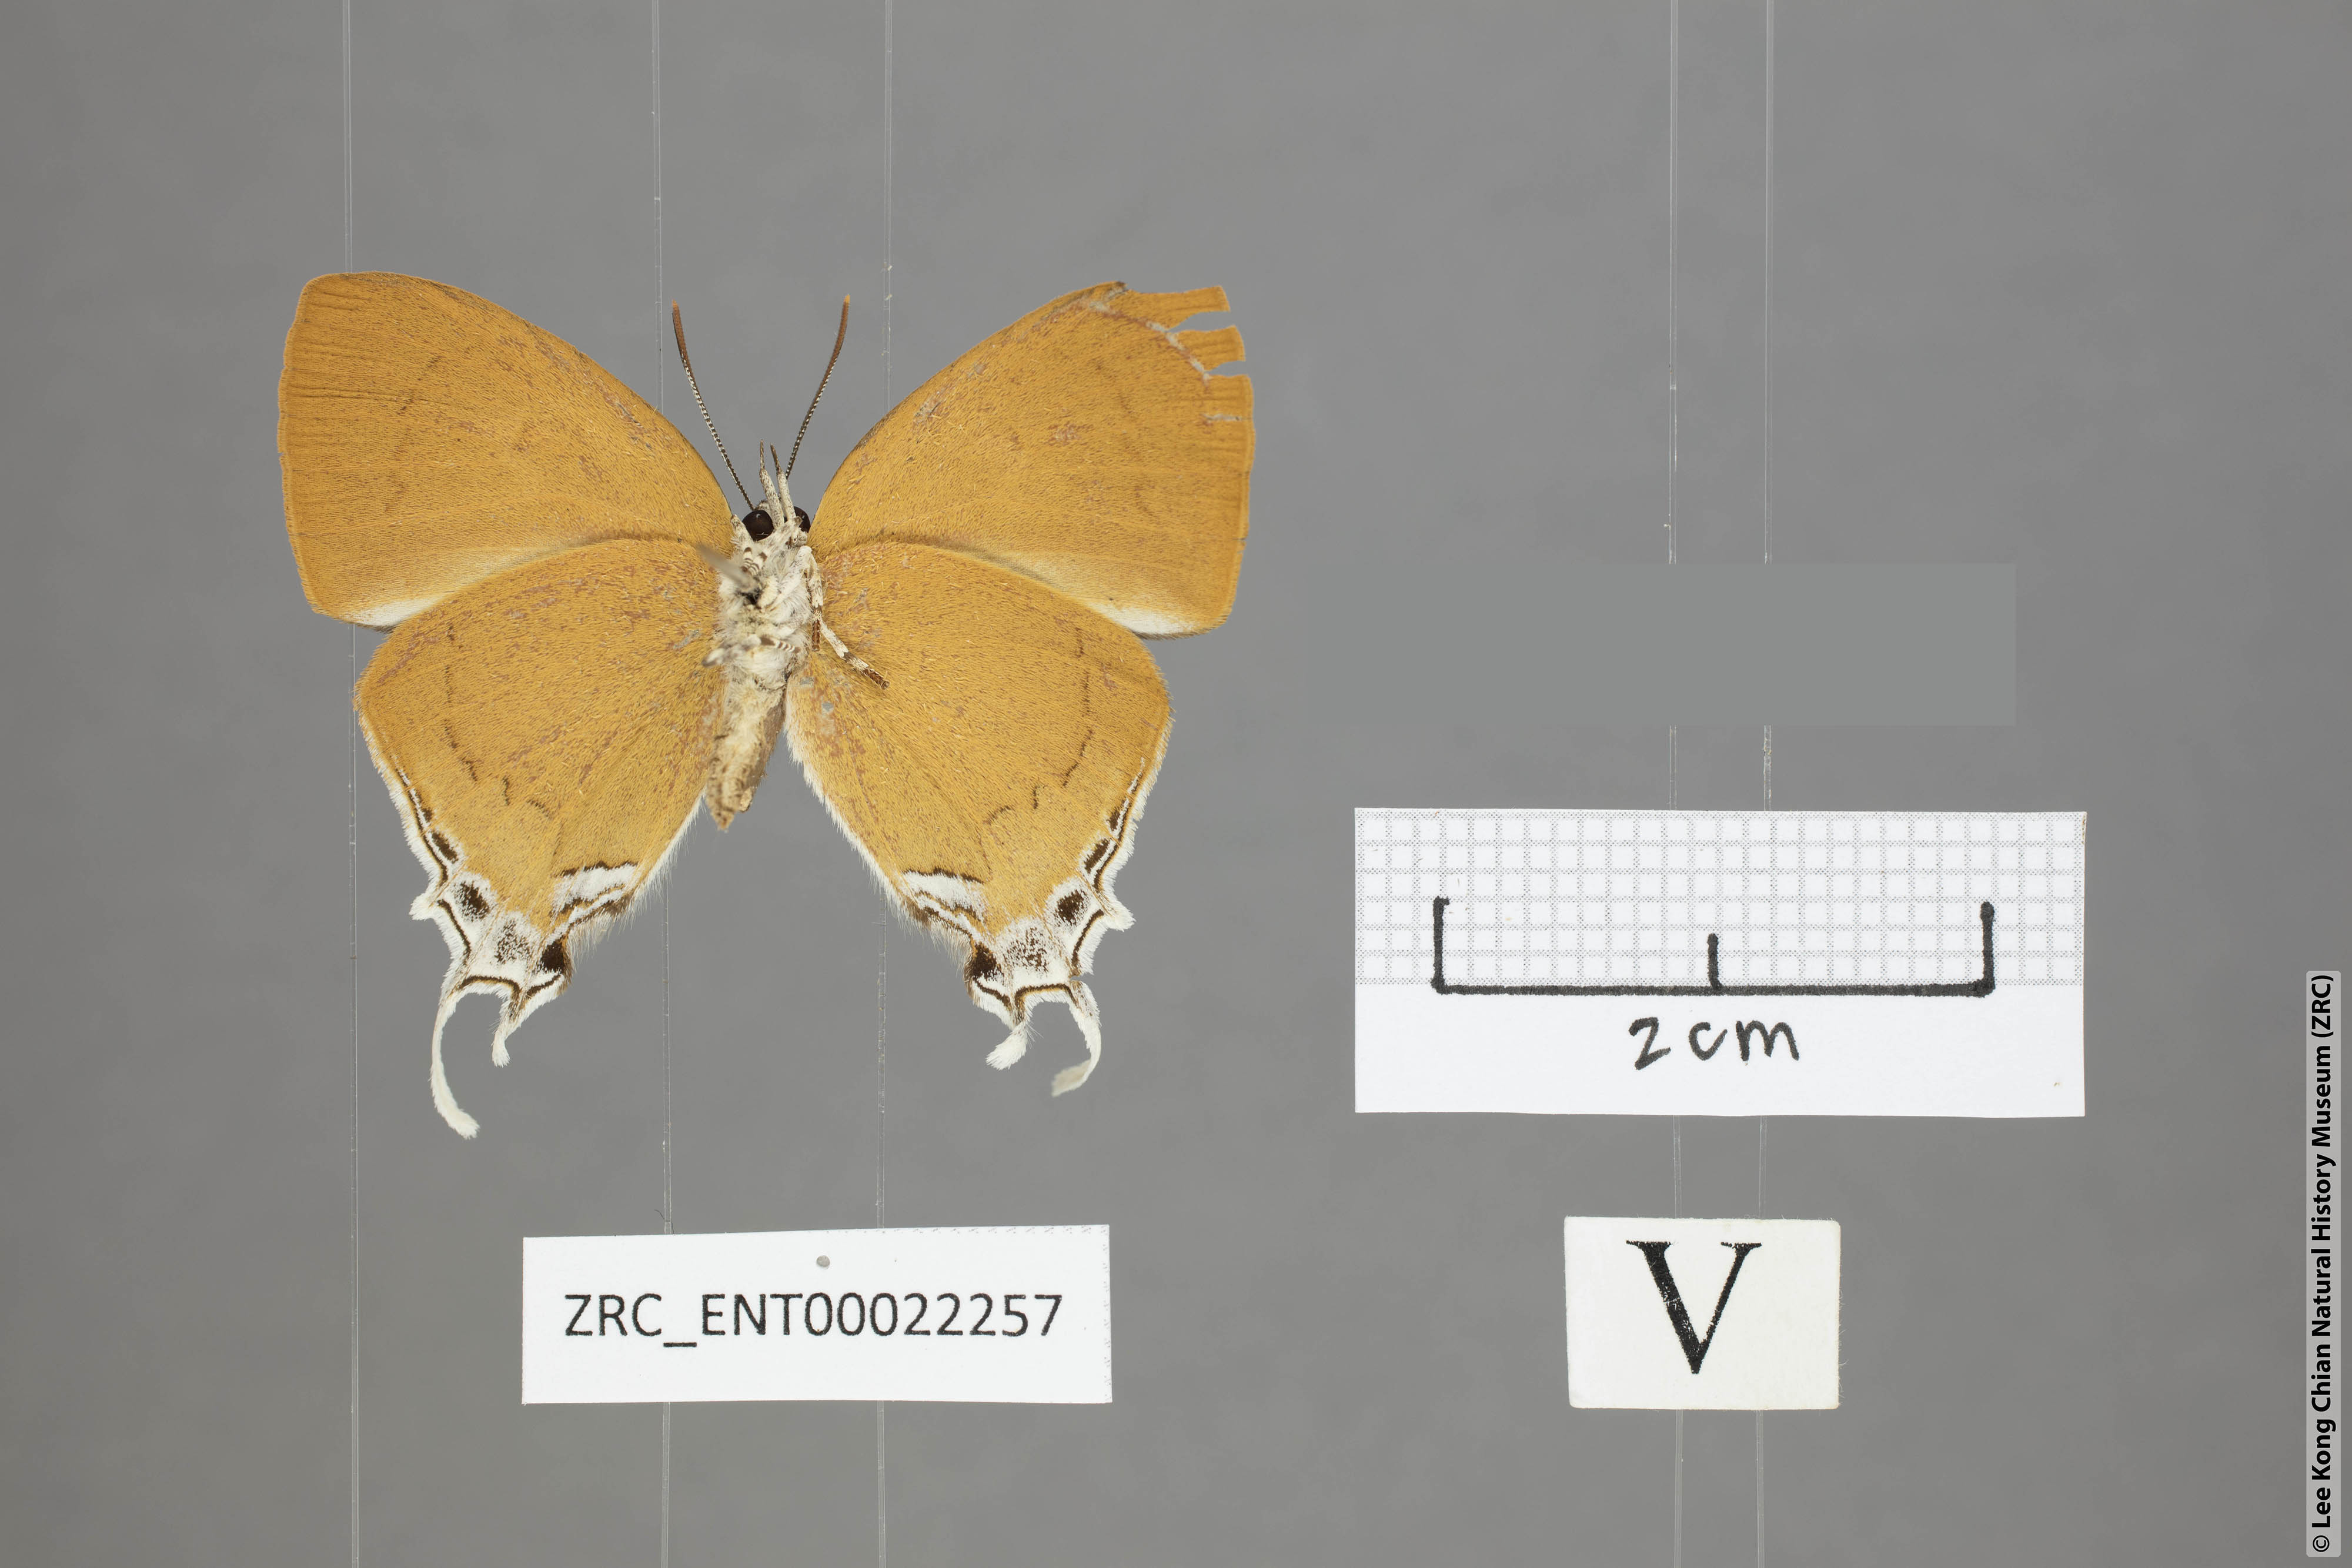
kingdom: Animalia
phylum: Arthropoda
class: Insecta
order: Lepidoptera
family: Lycaenidae
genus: Thamala
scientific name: Thamala marciana
